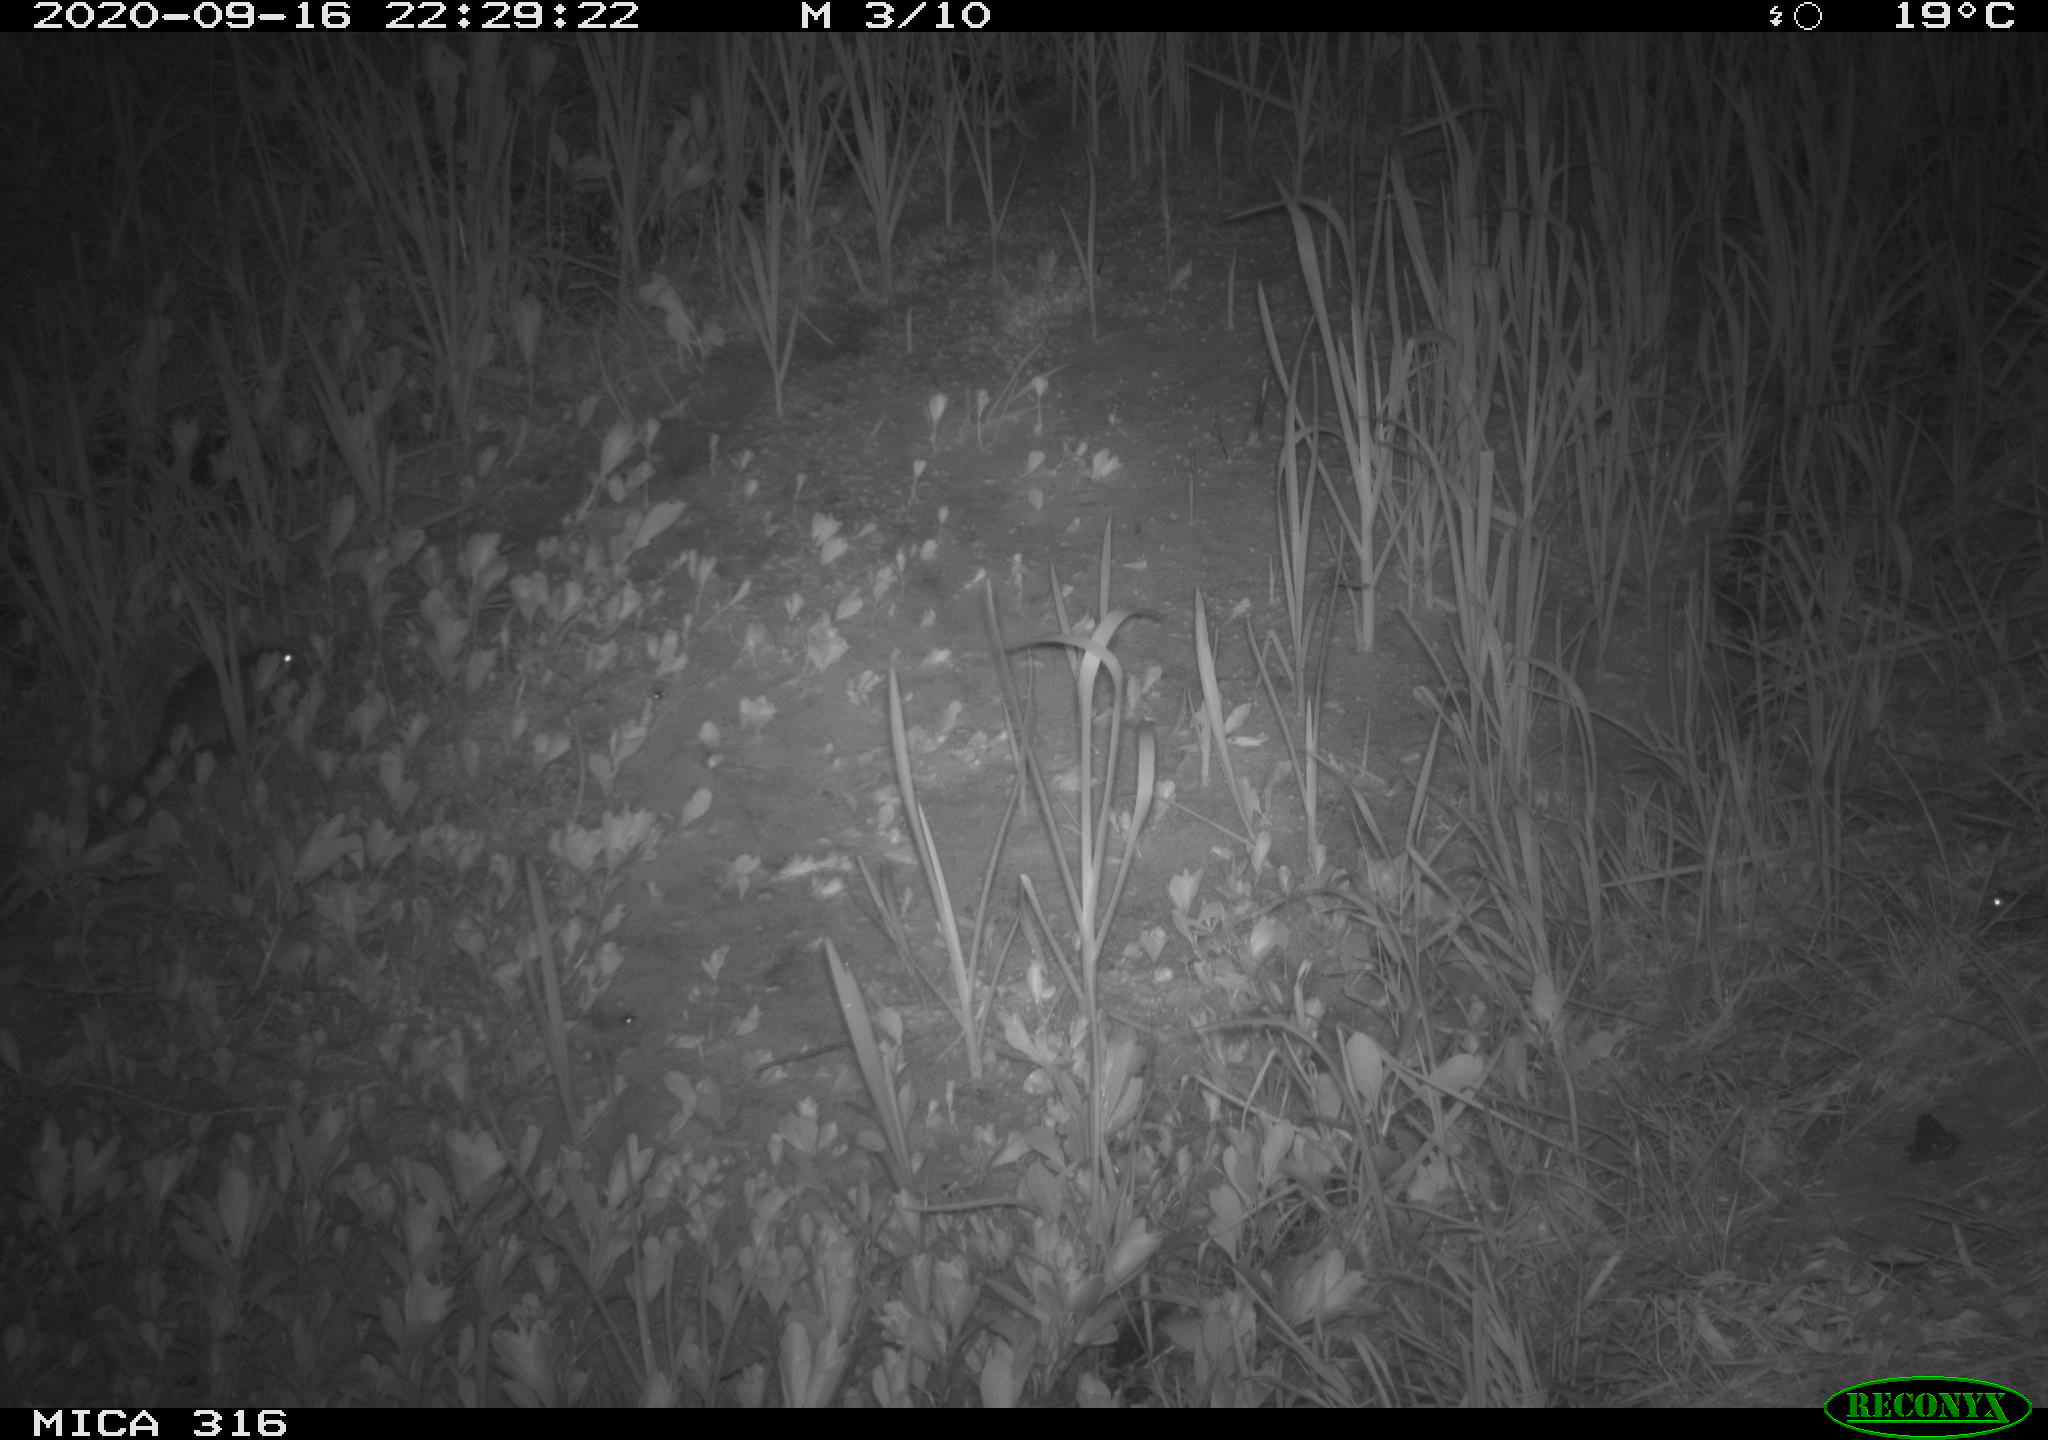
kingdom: Animalia
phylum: Chordata
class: Mammalia
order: Rodentia
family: Muridae
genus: Rattus
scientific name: Rattus norvegicus
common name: Brown rat
